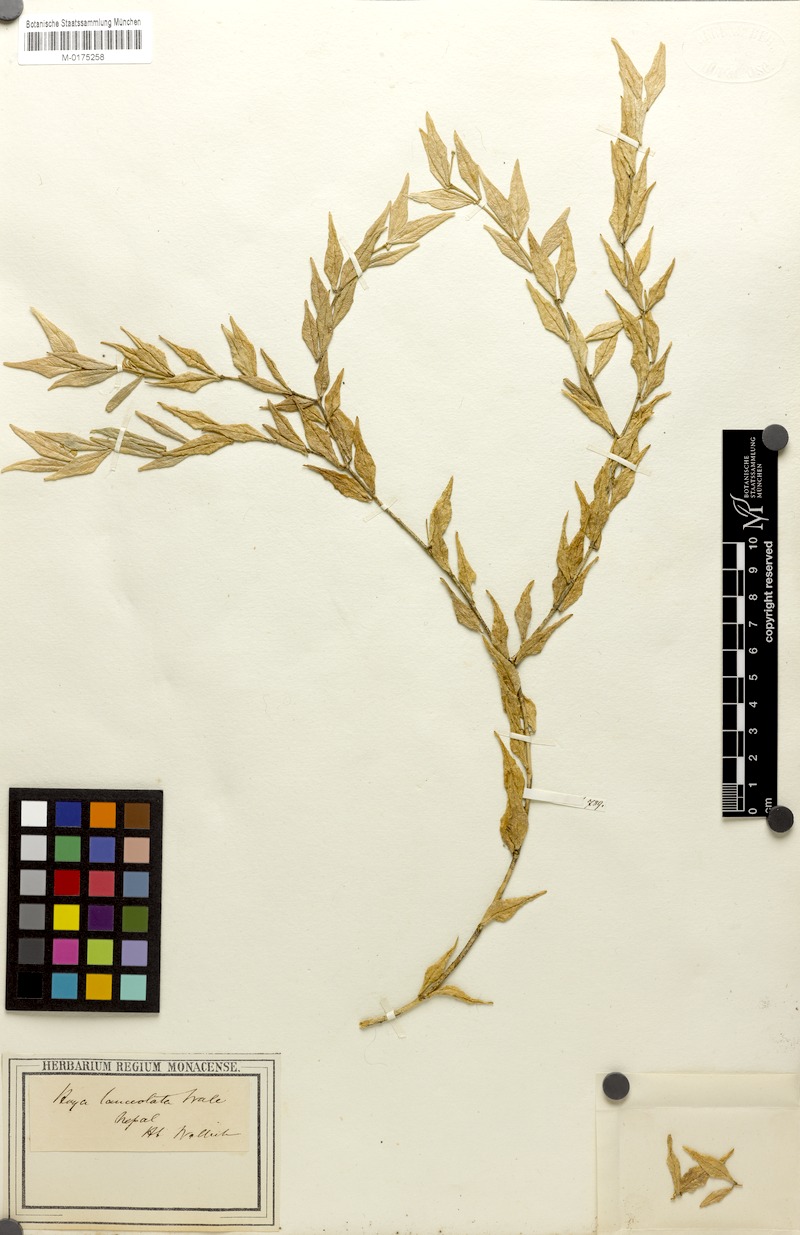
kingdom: Plantae
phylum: Tracheophyta
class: Magnoliopsida
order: Gentianales
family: Apocynaceae
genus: Hoya
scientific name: Hoya lanceolata
